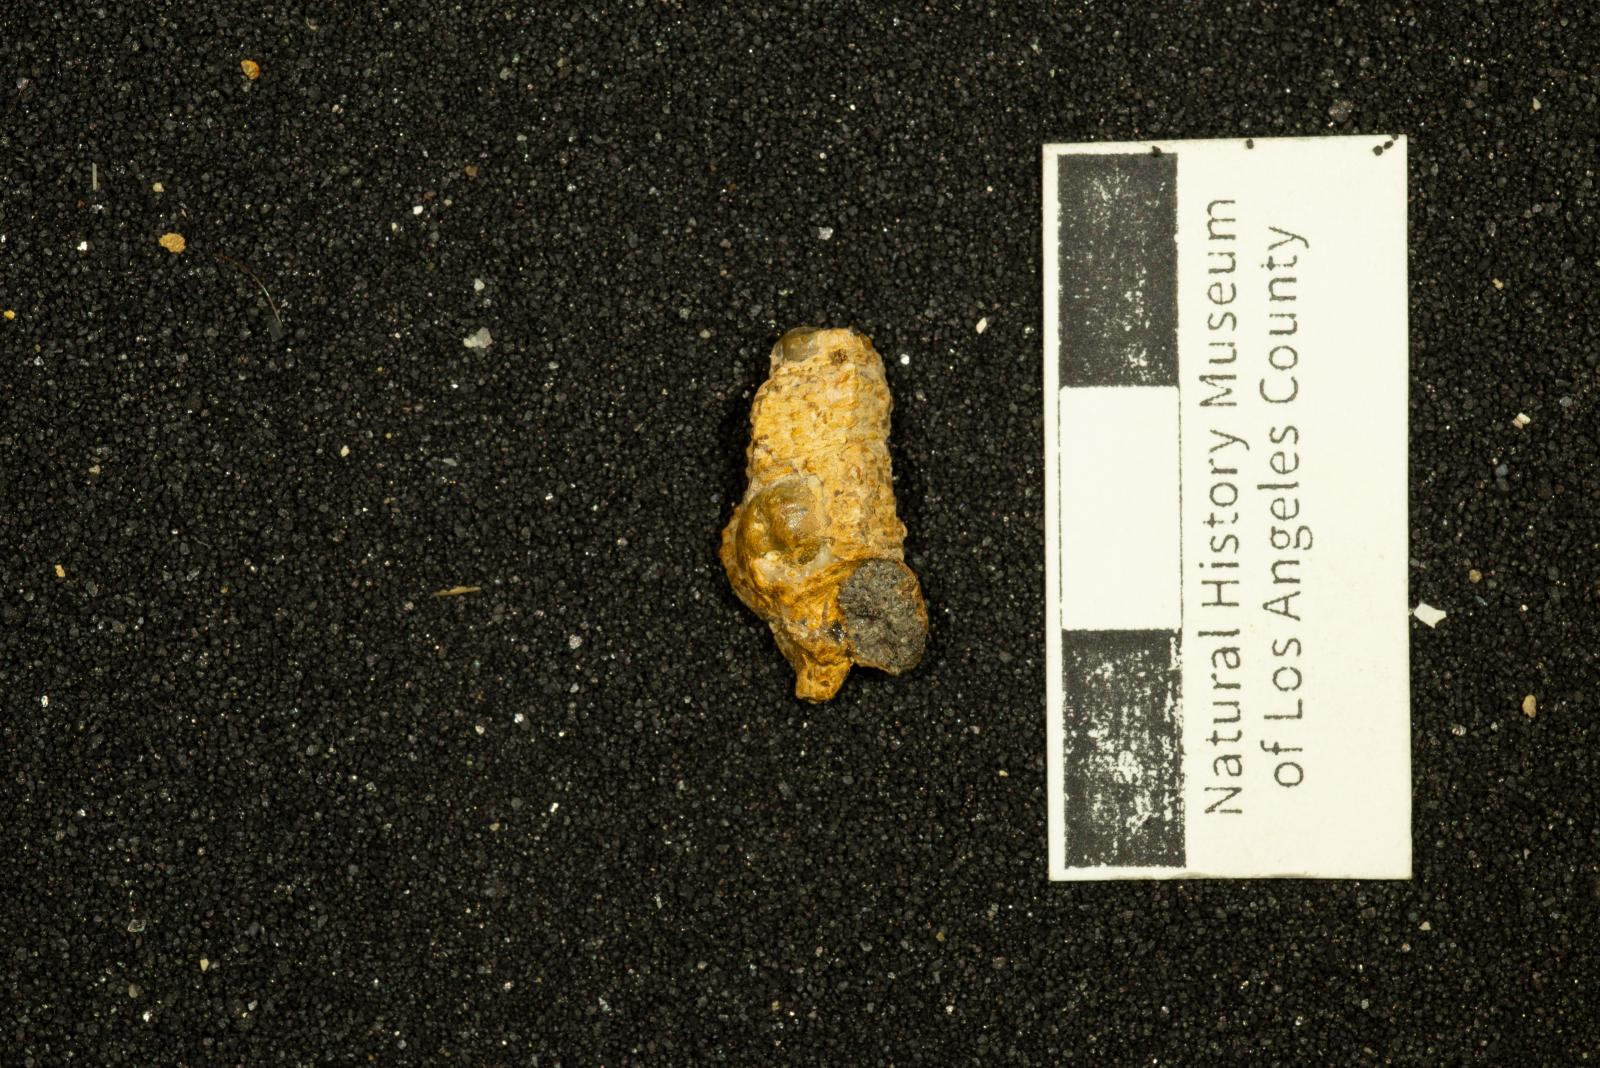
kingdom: Animalia
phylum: Mollusca
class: Gastropoda
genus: Alamirifica
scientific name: Alamirifica ursa
